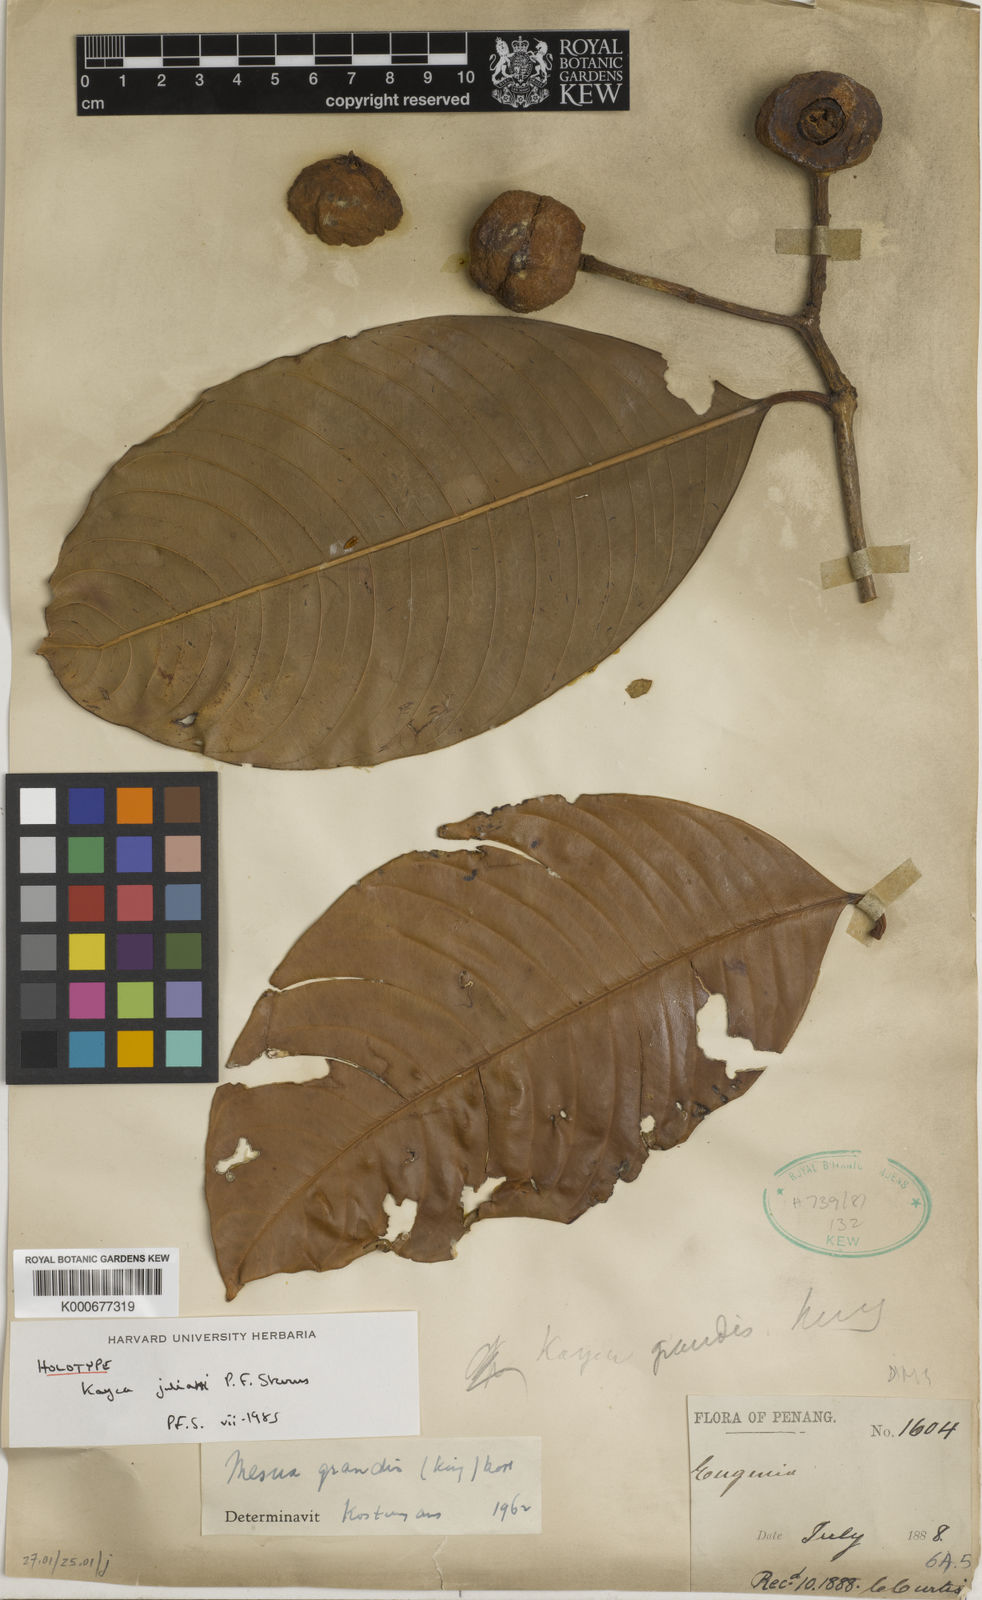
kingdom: Plantae
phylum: Tracheophyta
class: Magnoliopsida
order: Malpighiales
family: Calophyllaceae
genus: Kayea
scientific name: Kayea
